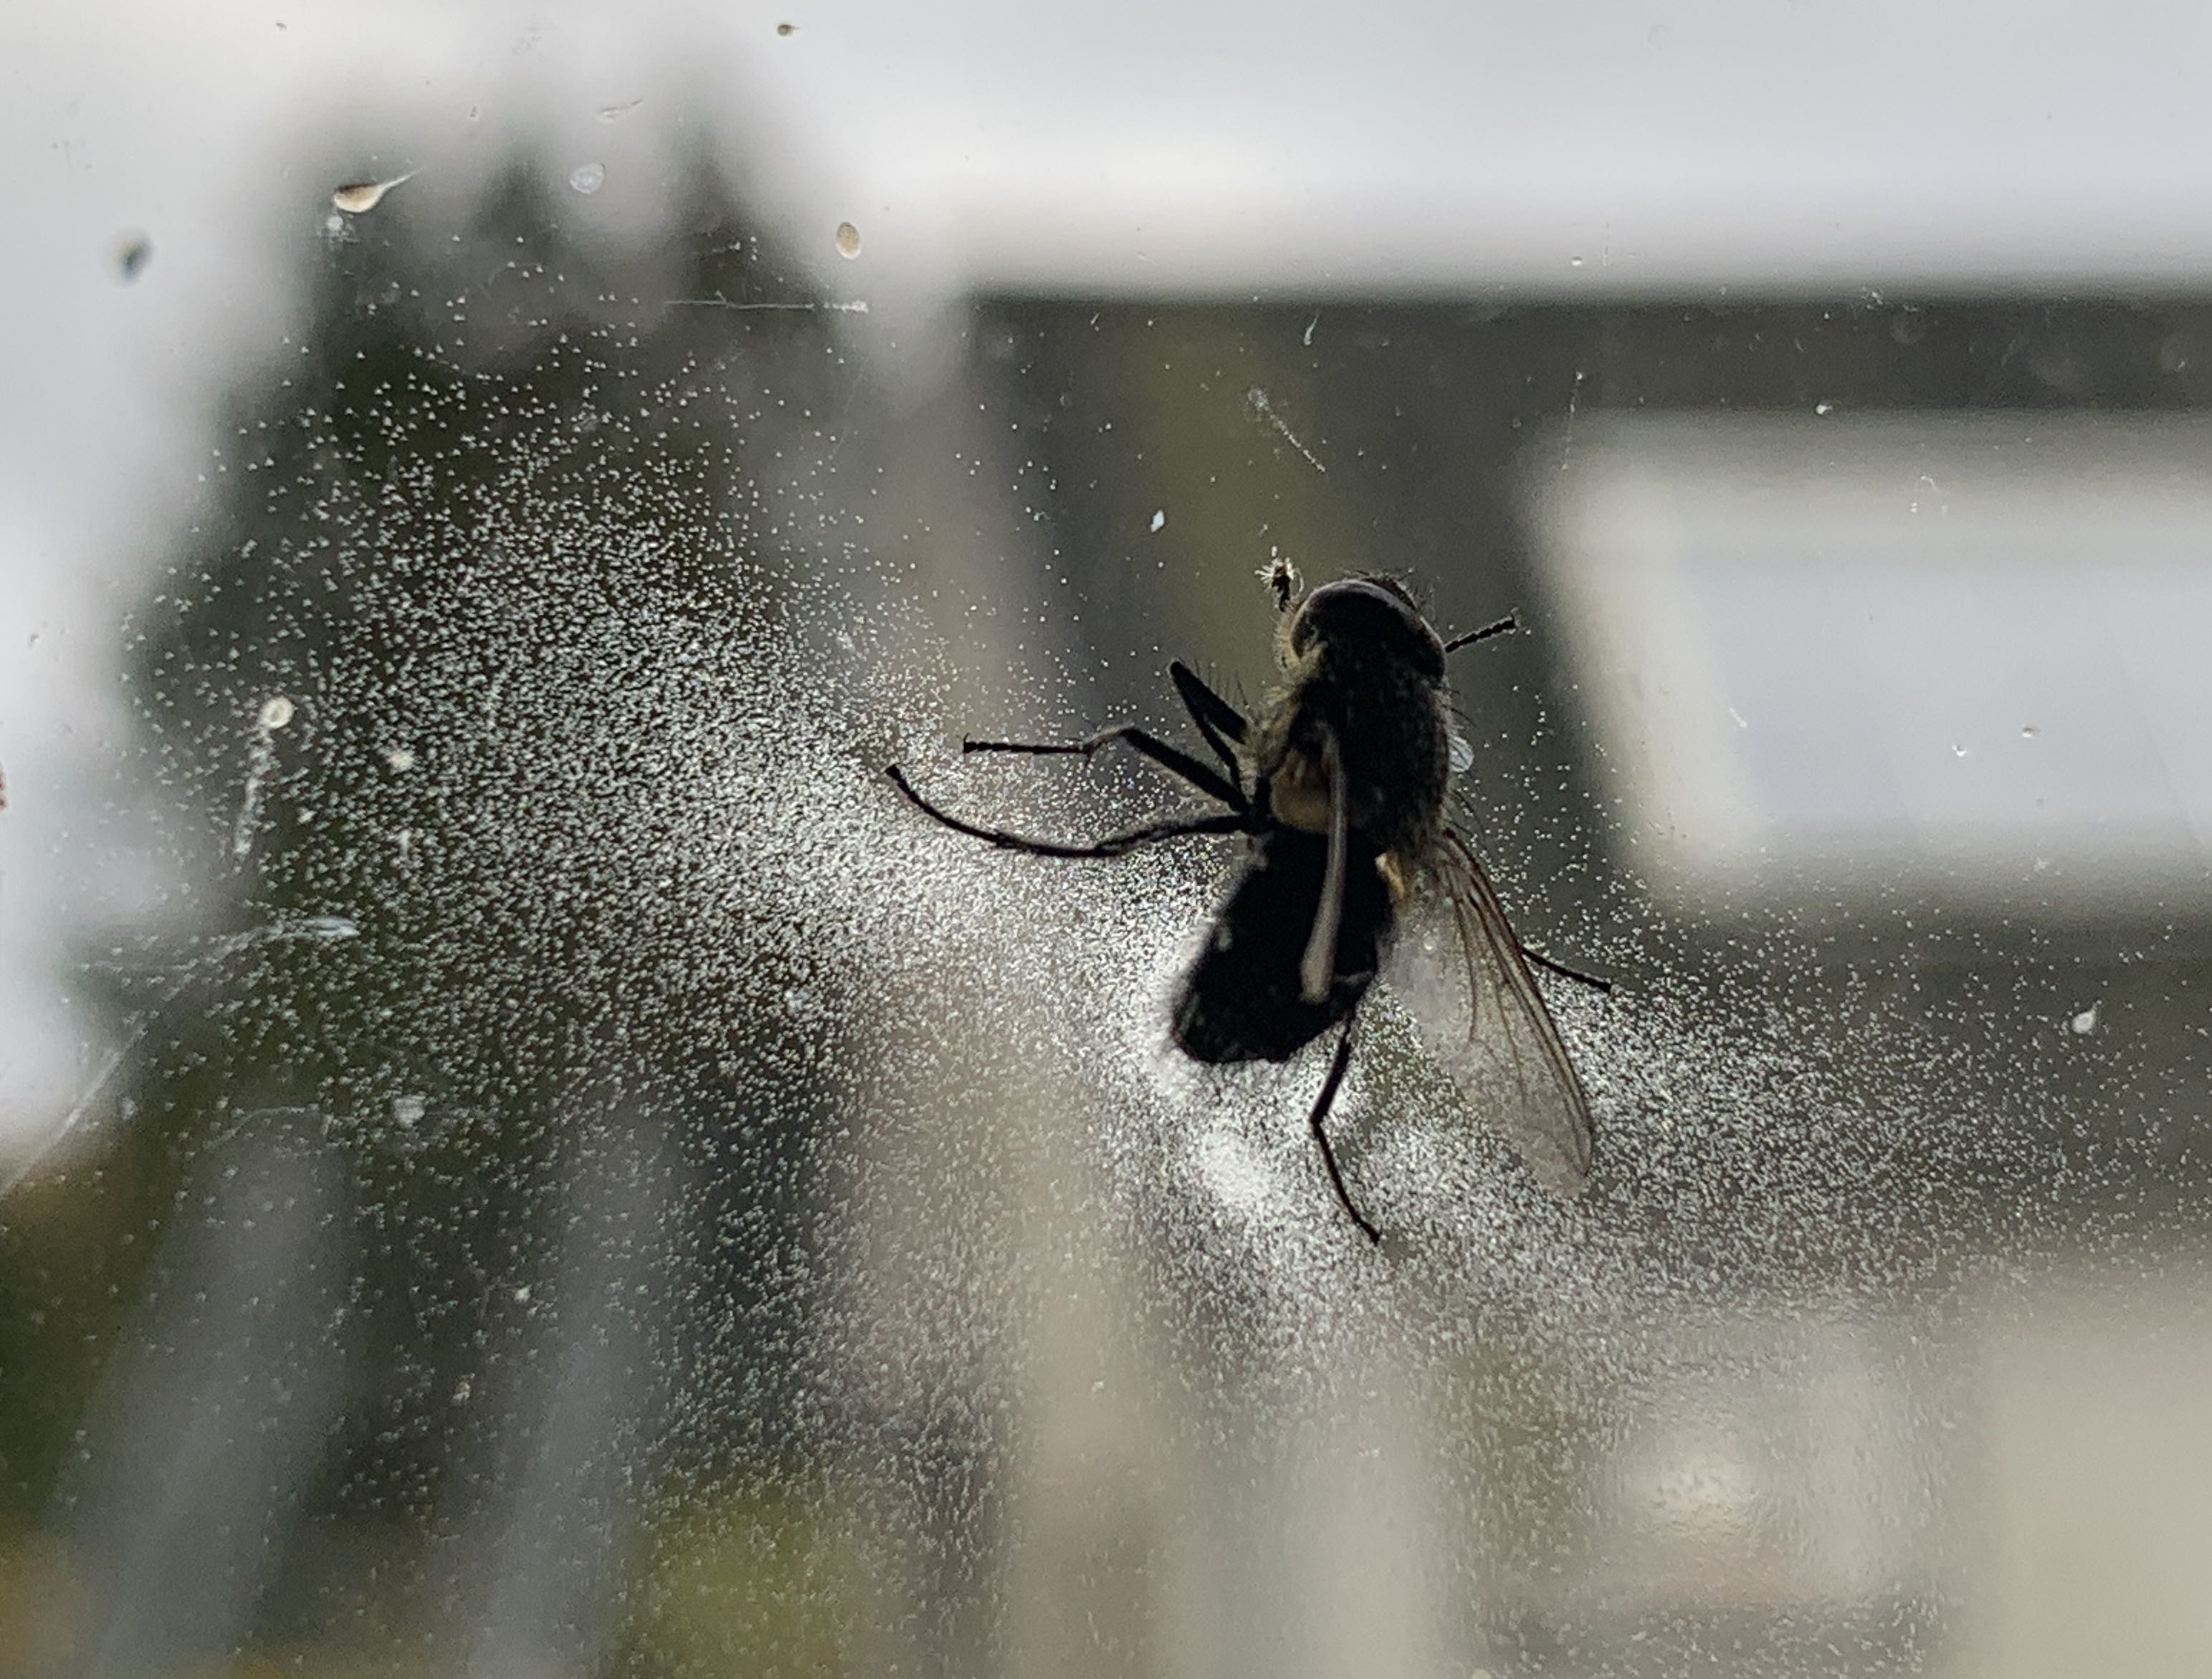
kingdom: Fungi
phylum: Entomophthoromycota
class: Entomophthoromycetes
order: Entomophthorales
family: Entomophthoraceae
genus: Entomophthora
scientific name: Entomophthora muscae
